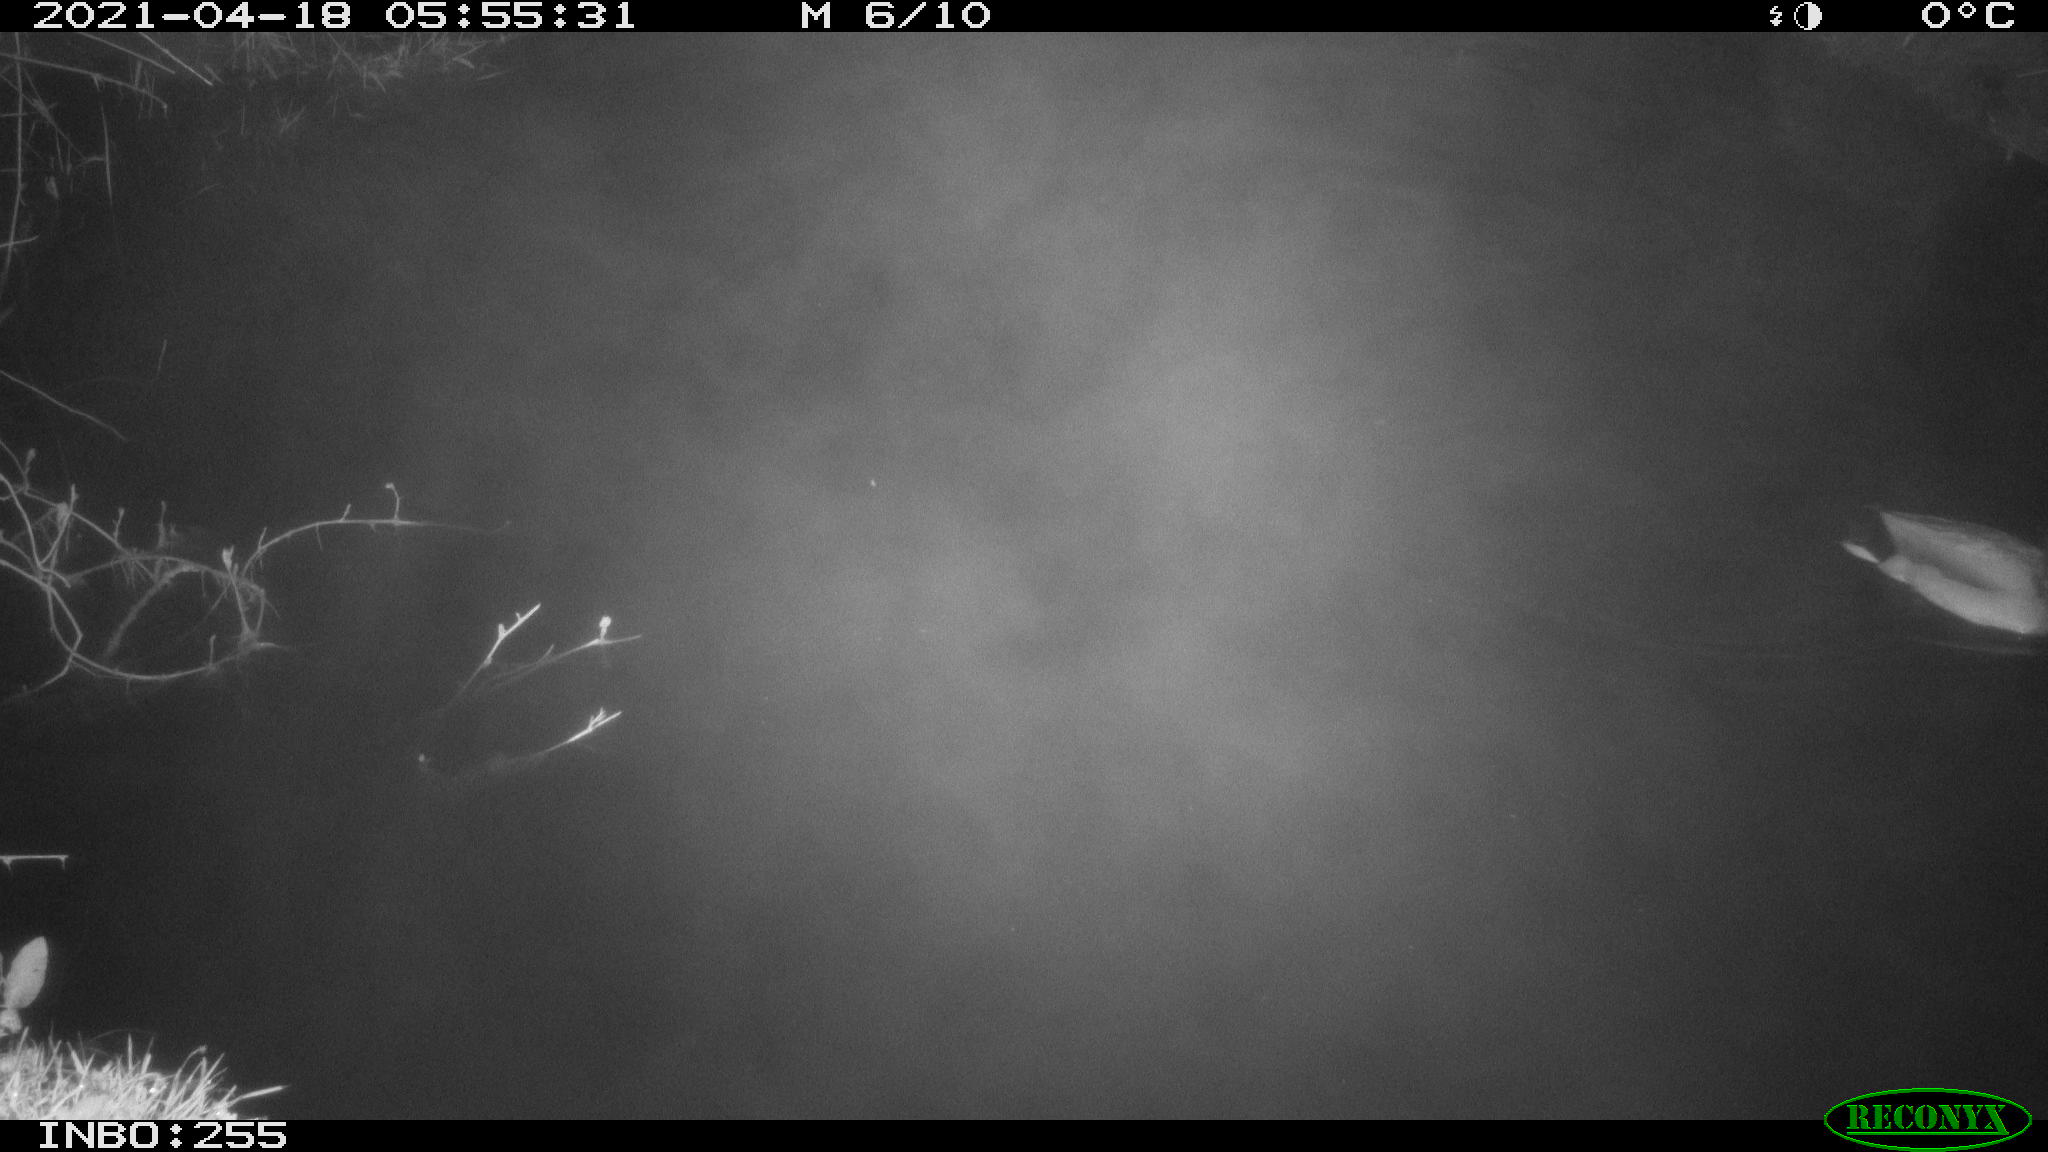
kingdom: Animalia
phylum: Chordata
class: Aves
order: Anseriformes
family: Anatidae
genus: Anas
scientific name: Anas platyrhynchos
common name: Mallard
